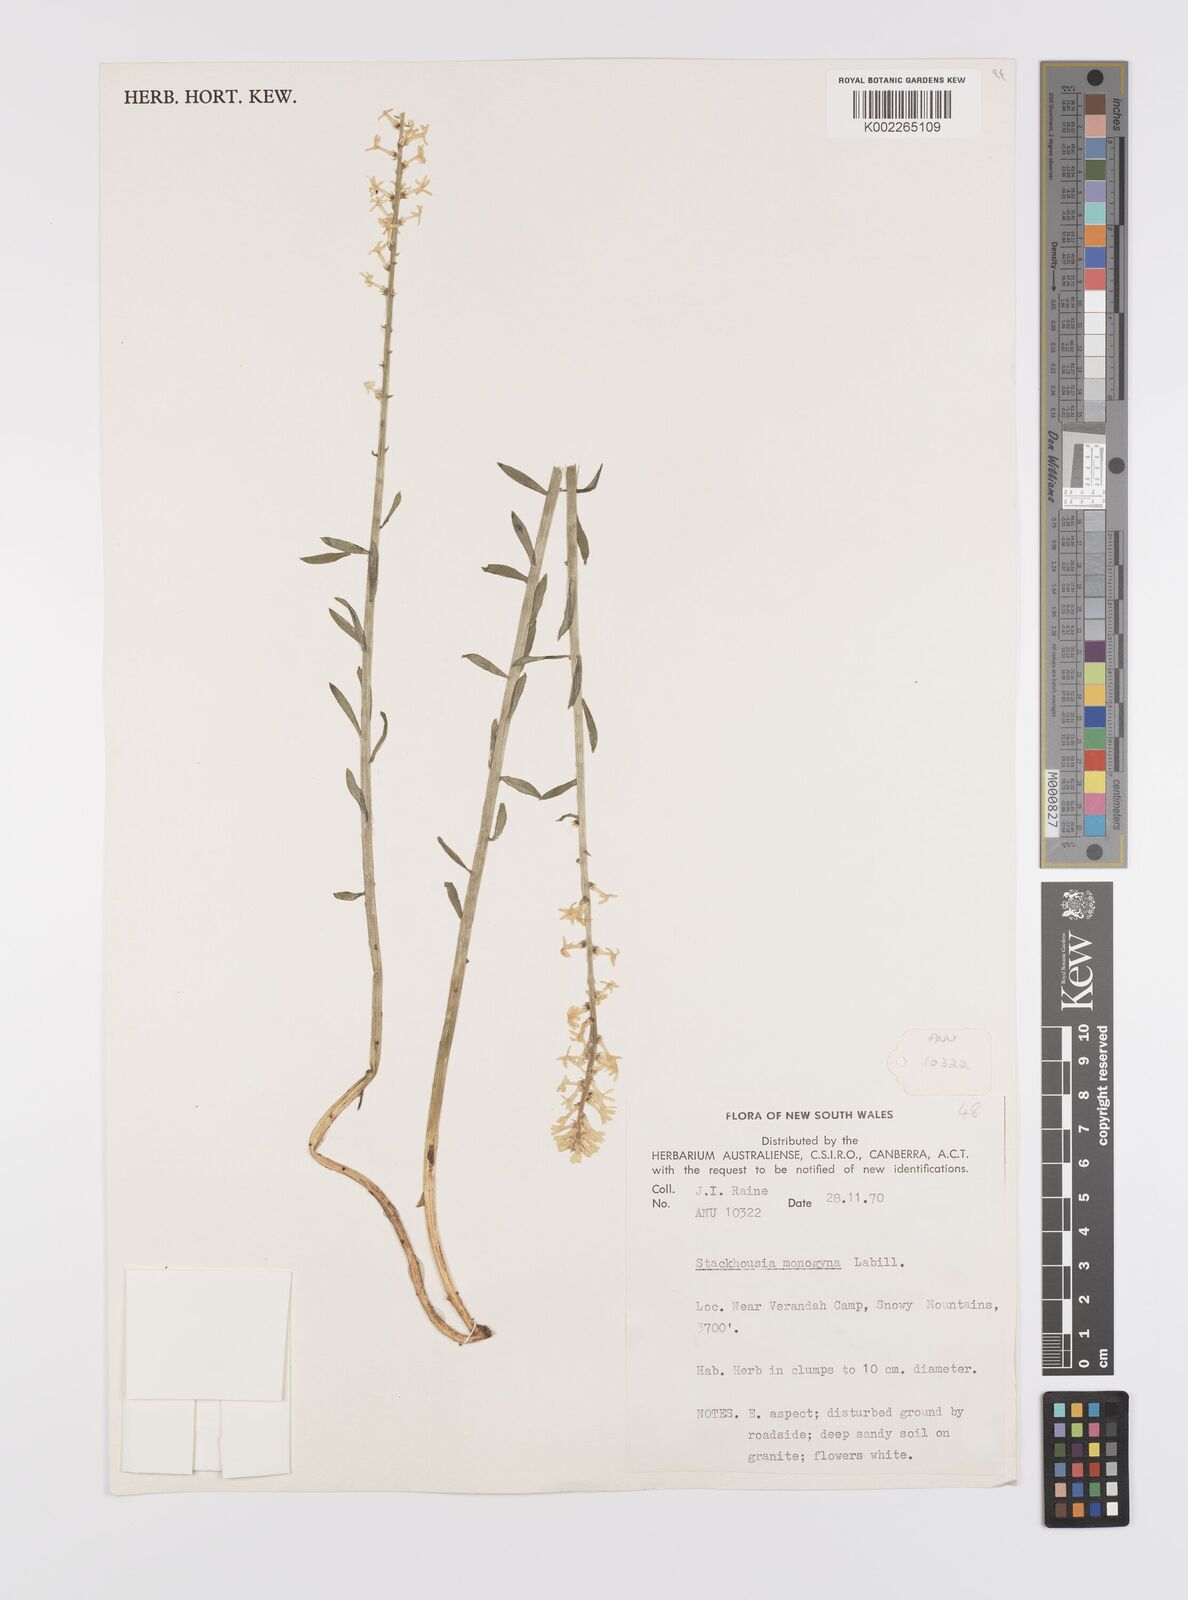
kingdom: Plantae
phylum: Tracheophyta
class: Magnoliopsida
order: Celastrales
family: Celastraceae
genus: Stackhousia
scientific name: Stackhousia monogyna
